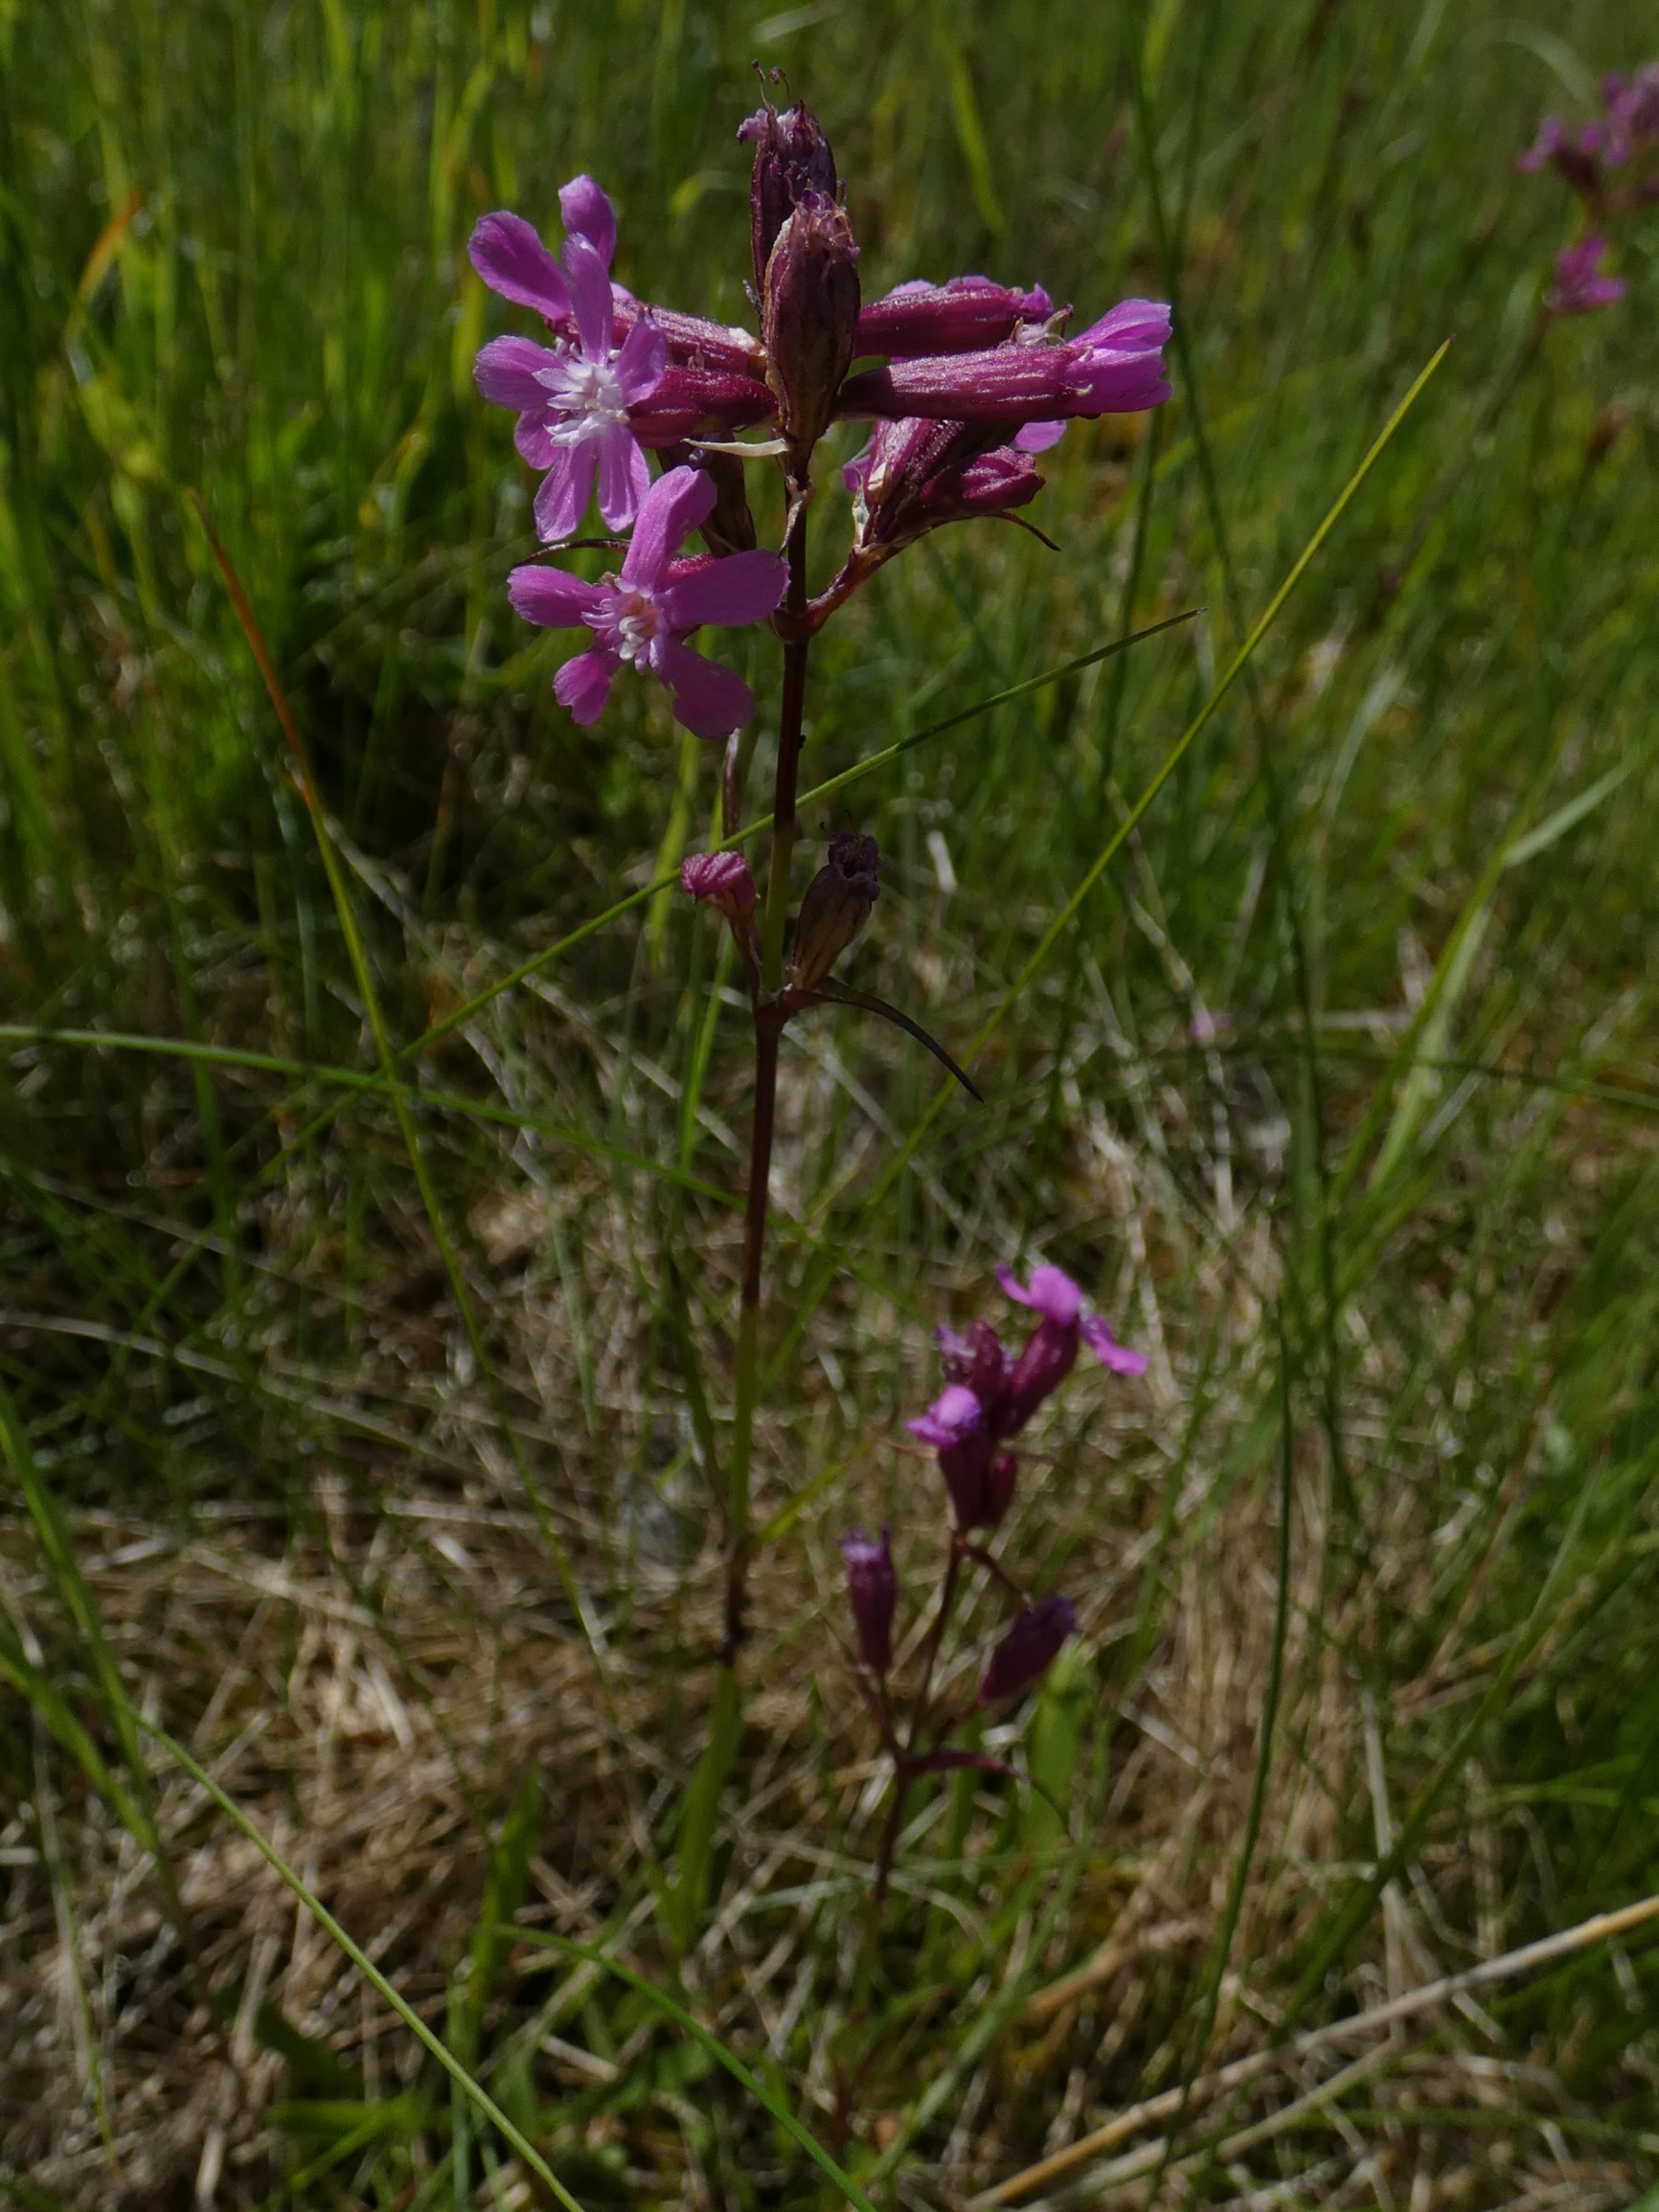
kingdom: Plantae
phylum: Tracheophyta
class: Magnoliopsida
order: Caryophyllales
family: Caryophyllaceae
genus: Viscaria
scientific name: Viscaria vulgaris
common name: Tjærenellike
